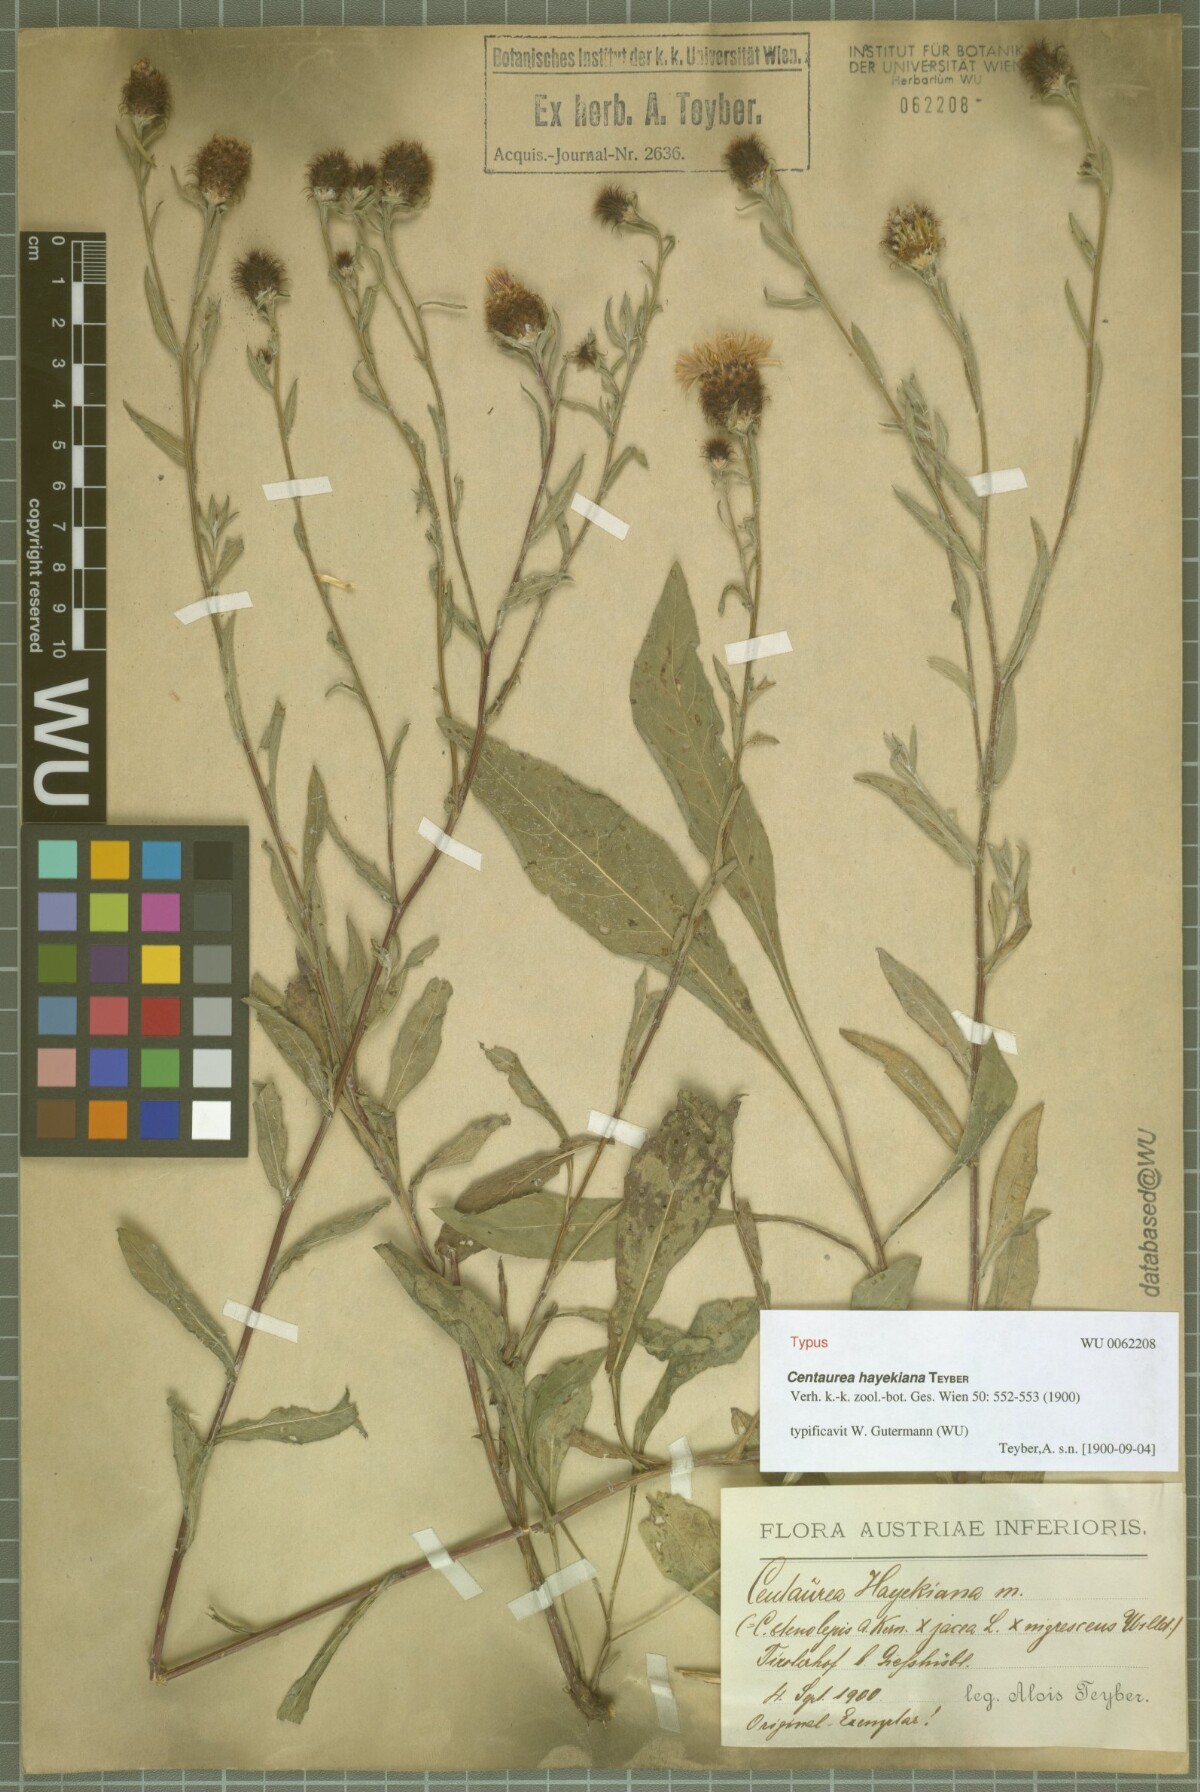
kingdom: Plantae
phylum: Tracheophyta
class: Magnoliopsida
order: Asterales
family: Asteraceae
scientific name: Asteraceae
